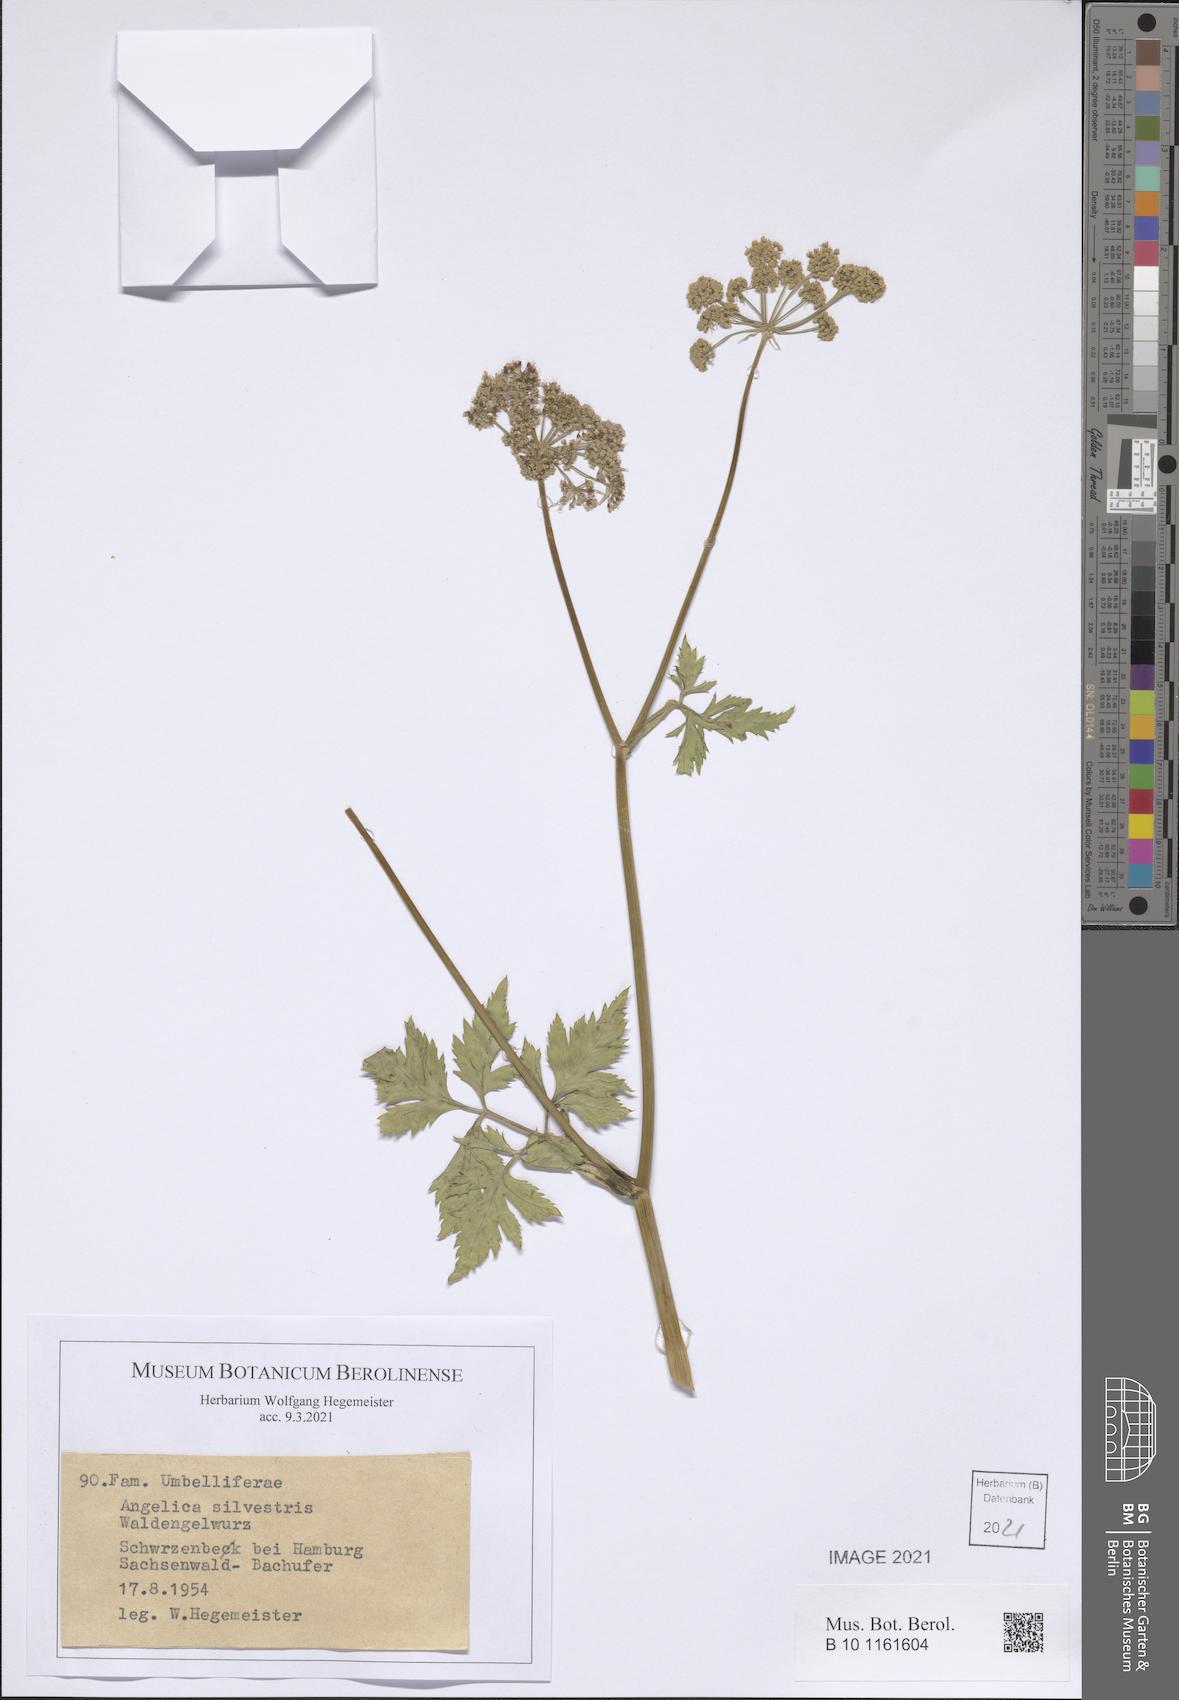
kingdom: Plantae
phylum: Tracheophyta
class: Magnoliopsida
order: Apiales
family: Apiaceae
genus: Angelica
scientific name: Angelica sylvestris
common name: Wild angelica
